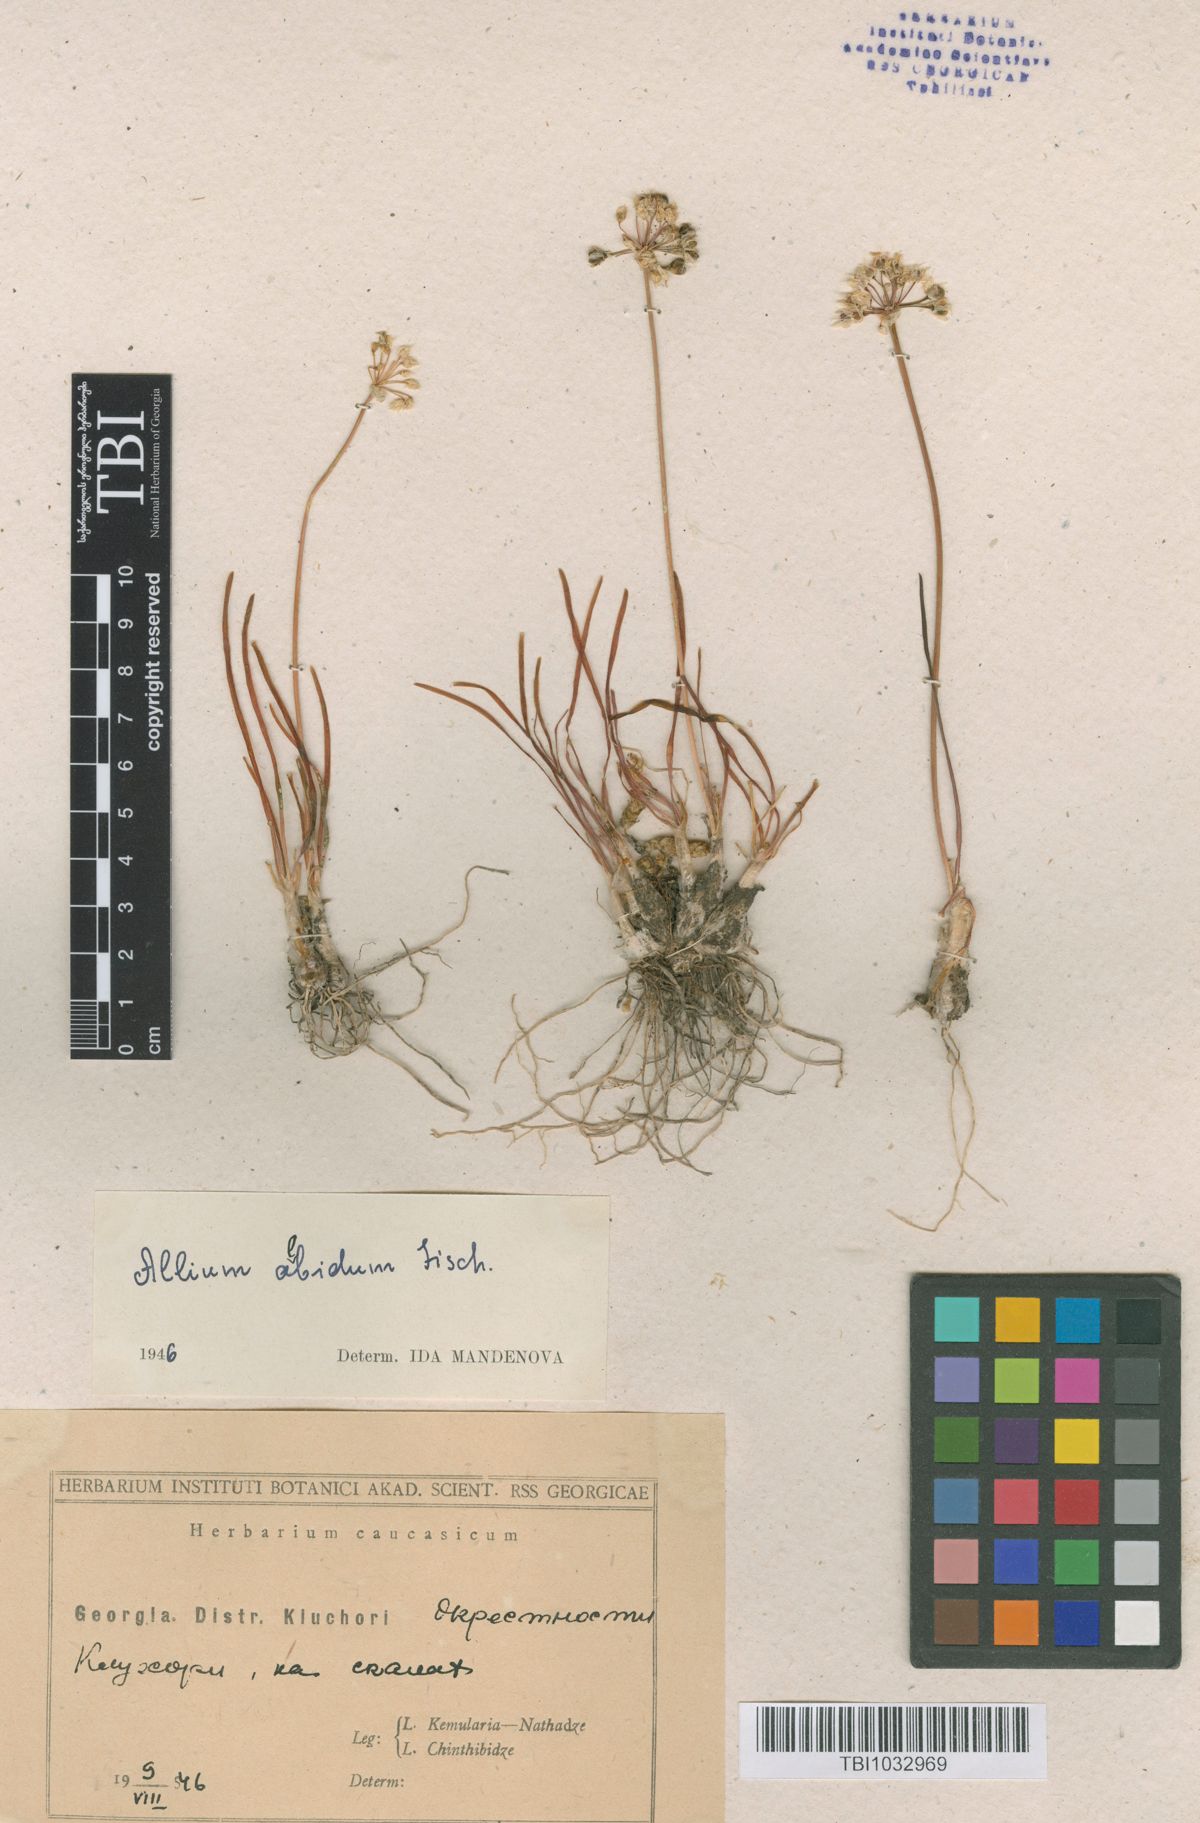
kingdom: Plantae
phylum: Tracheophyta
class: Liliopsida
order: Asparagales
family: Amaryllidaceae
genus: Allium
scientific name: Allium denudatum
